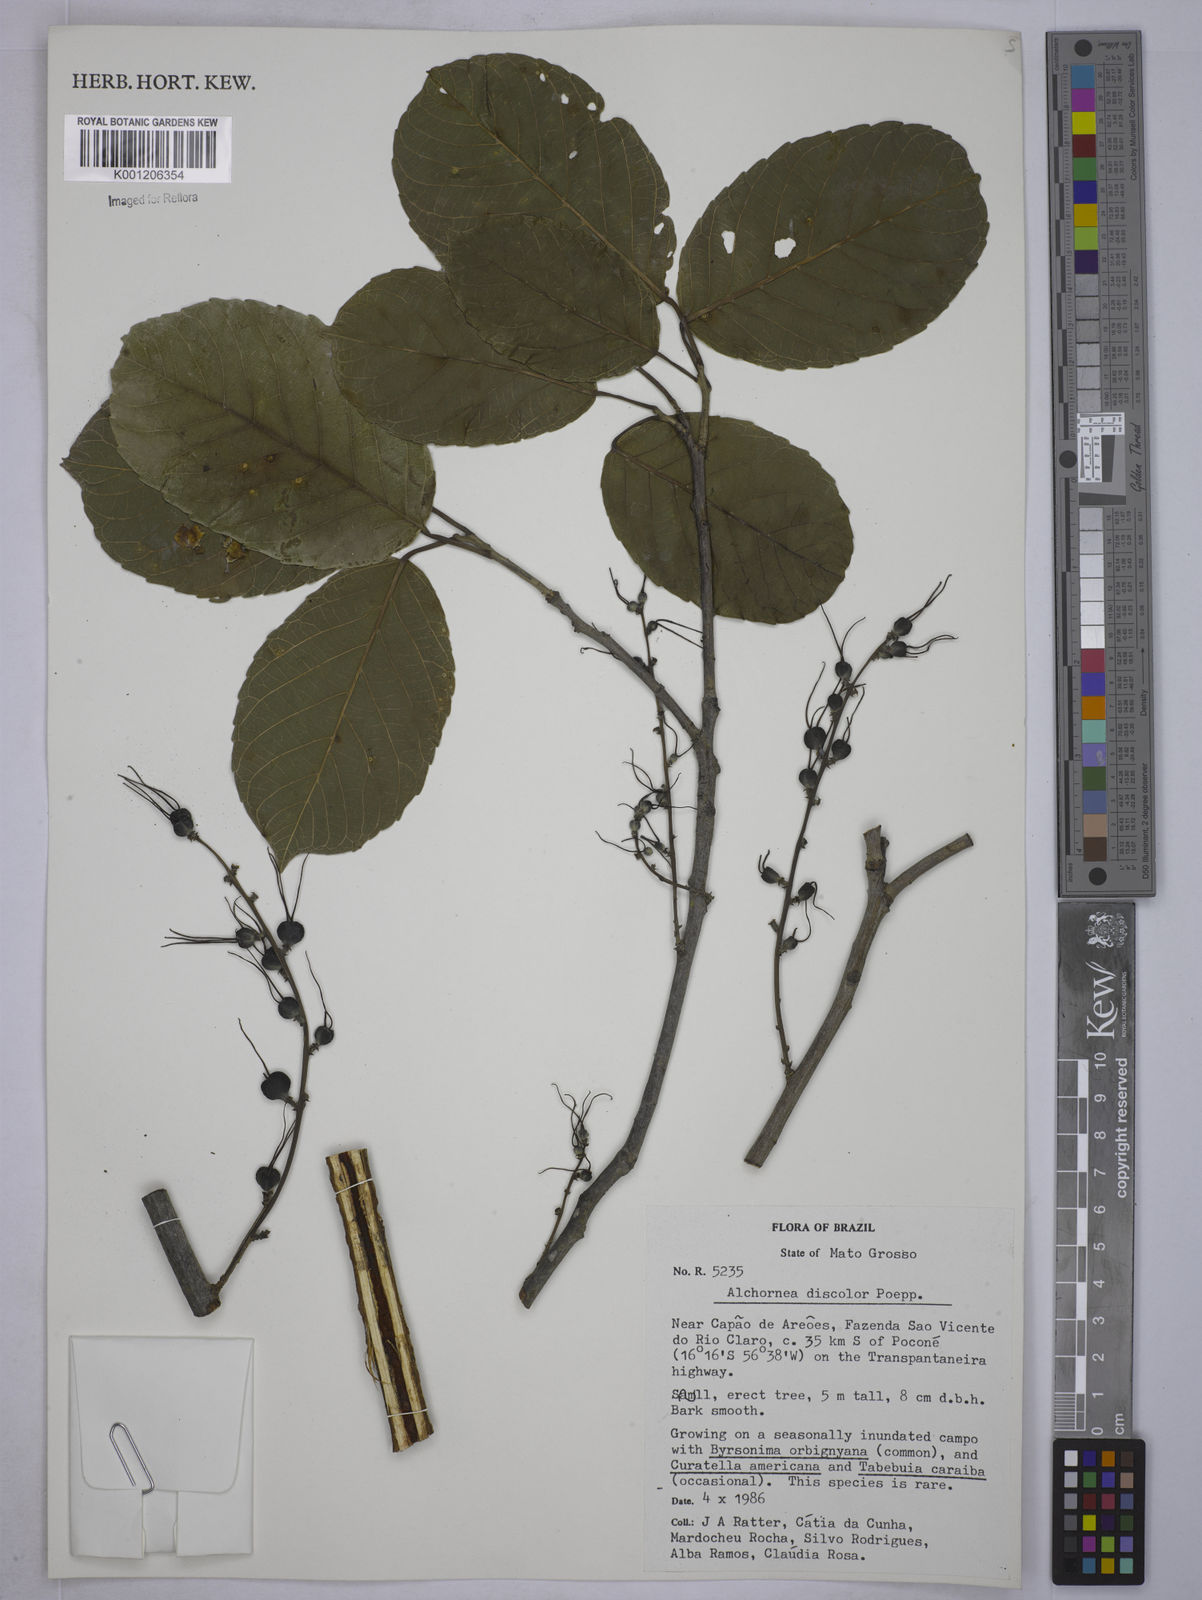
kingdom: Plantae
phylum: Tracheophyta
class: Magnoliopsida
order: Malpighiales
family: Euphorbiaceae
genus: Alchornea
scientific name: Alchornea discolor
